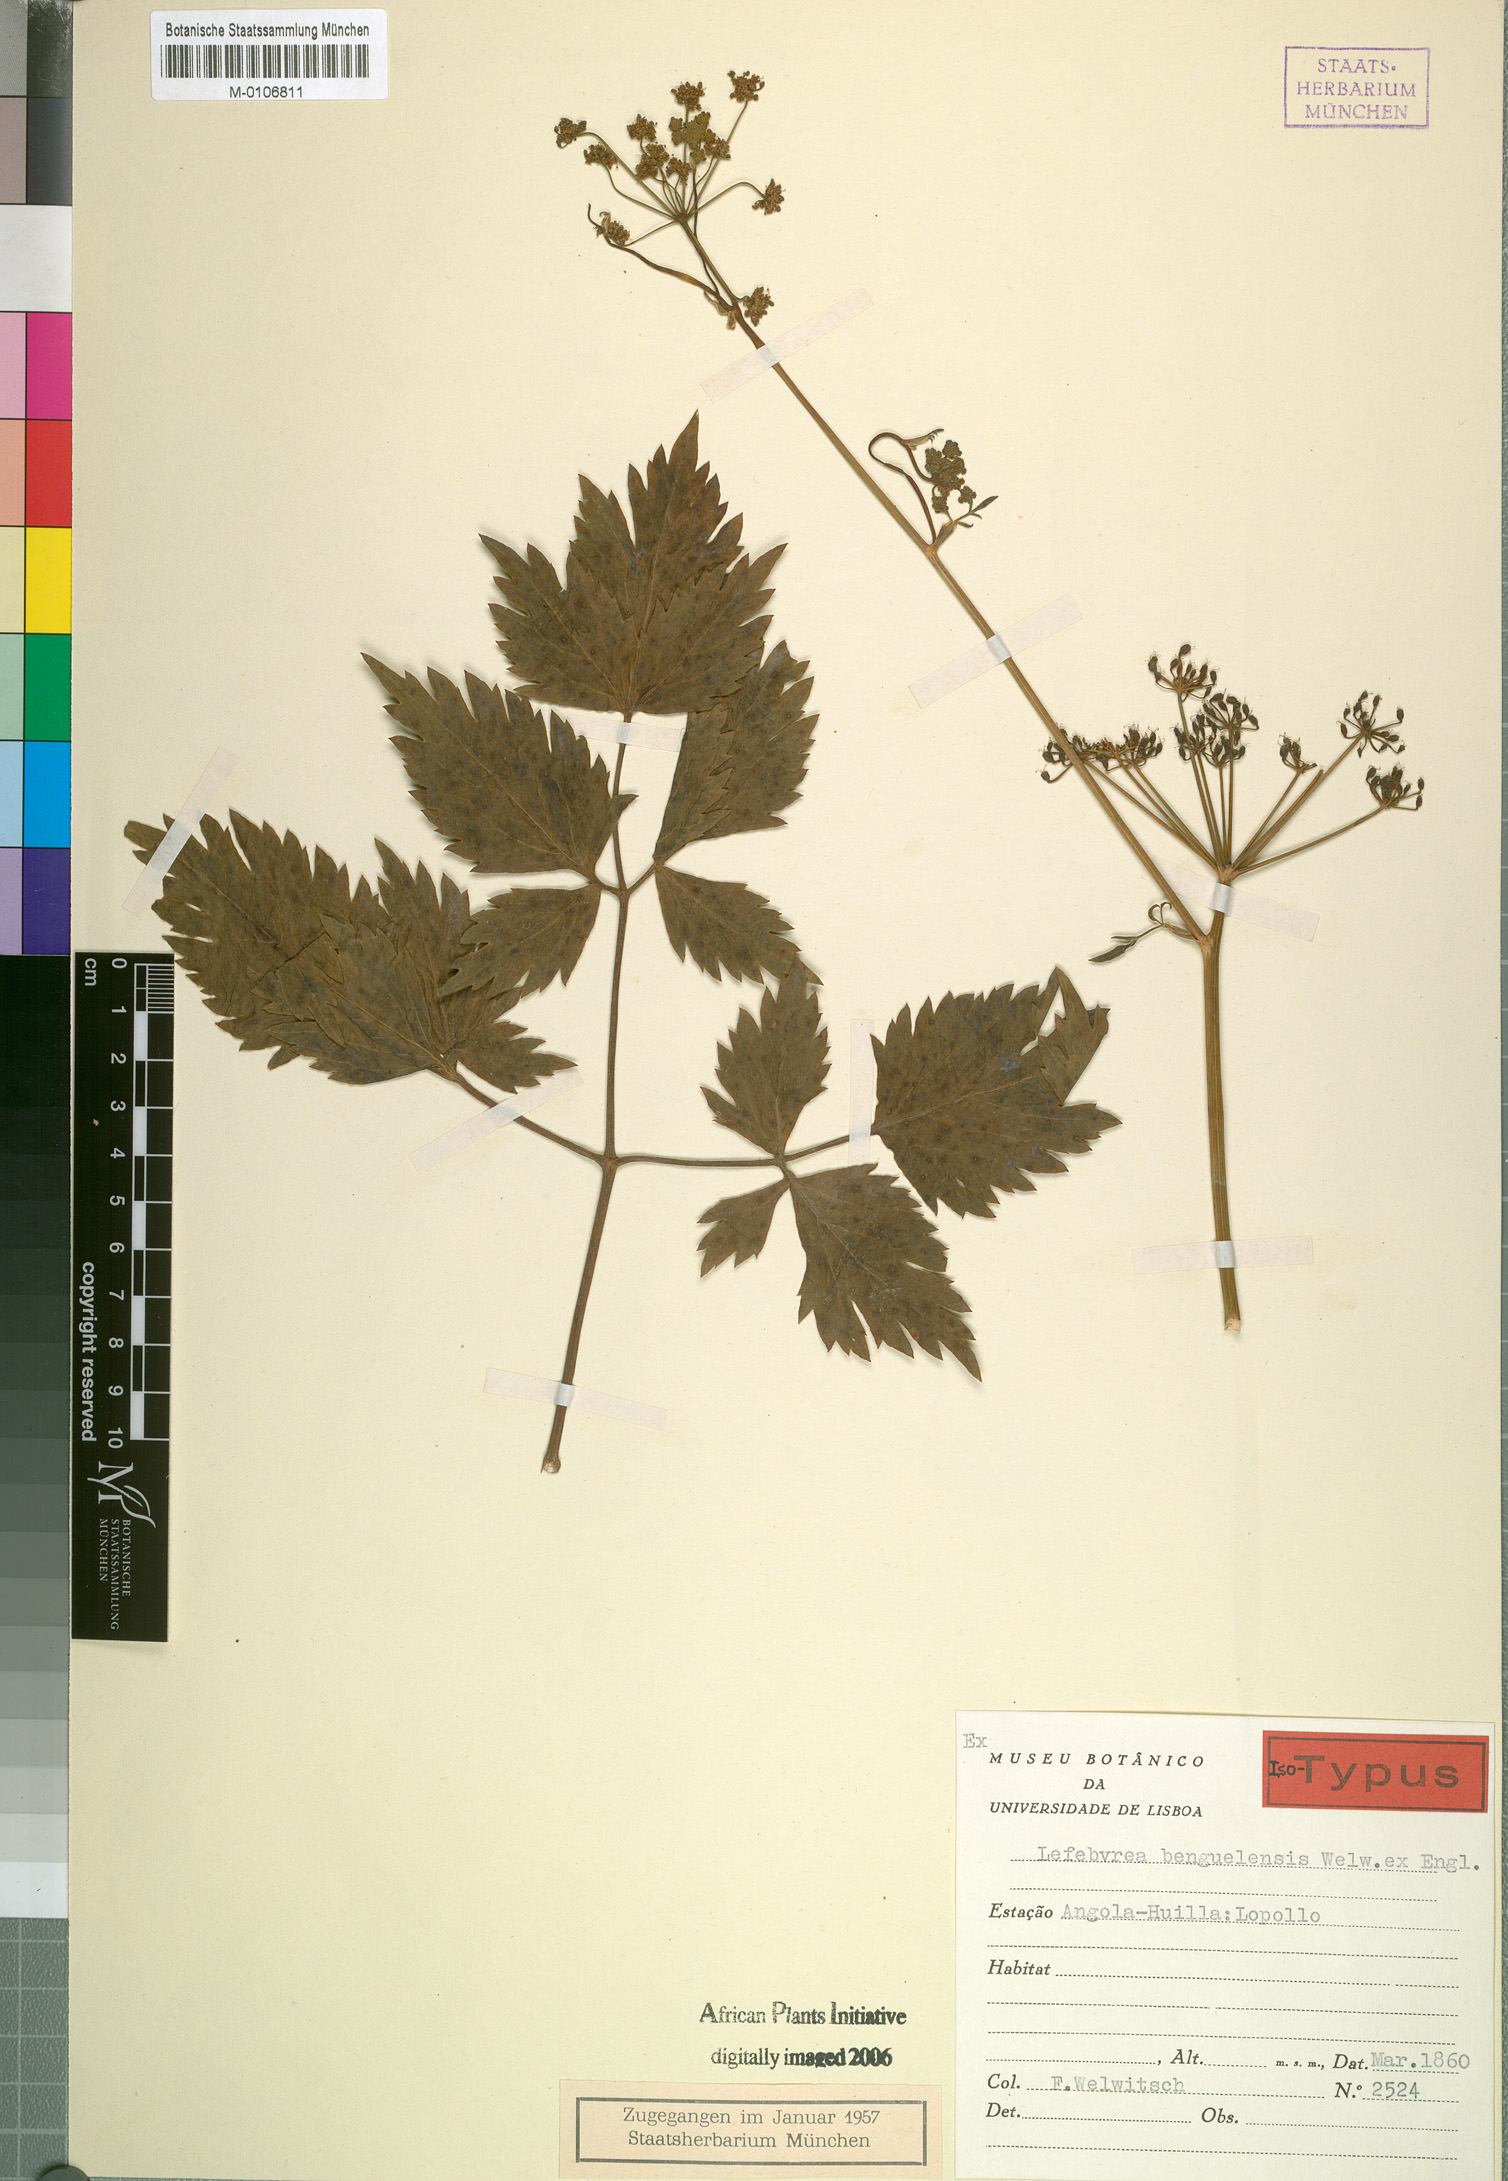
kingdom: Plantae
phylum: Tracheophyta
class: Magnoliopsida
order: Apiales
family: Apiaceae
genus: Lefebvrea
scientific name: Lefebvrea grantii
